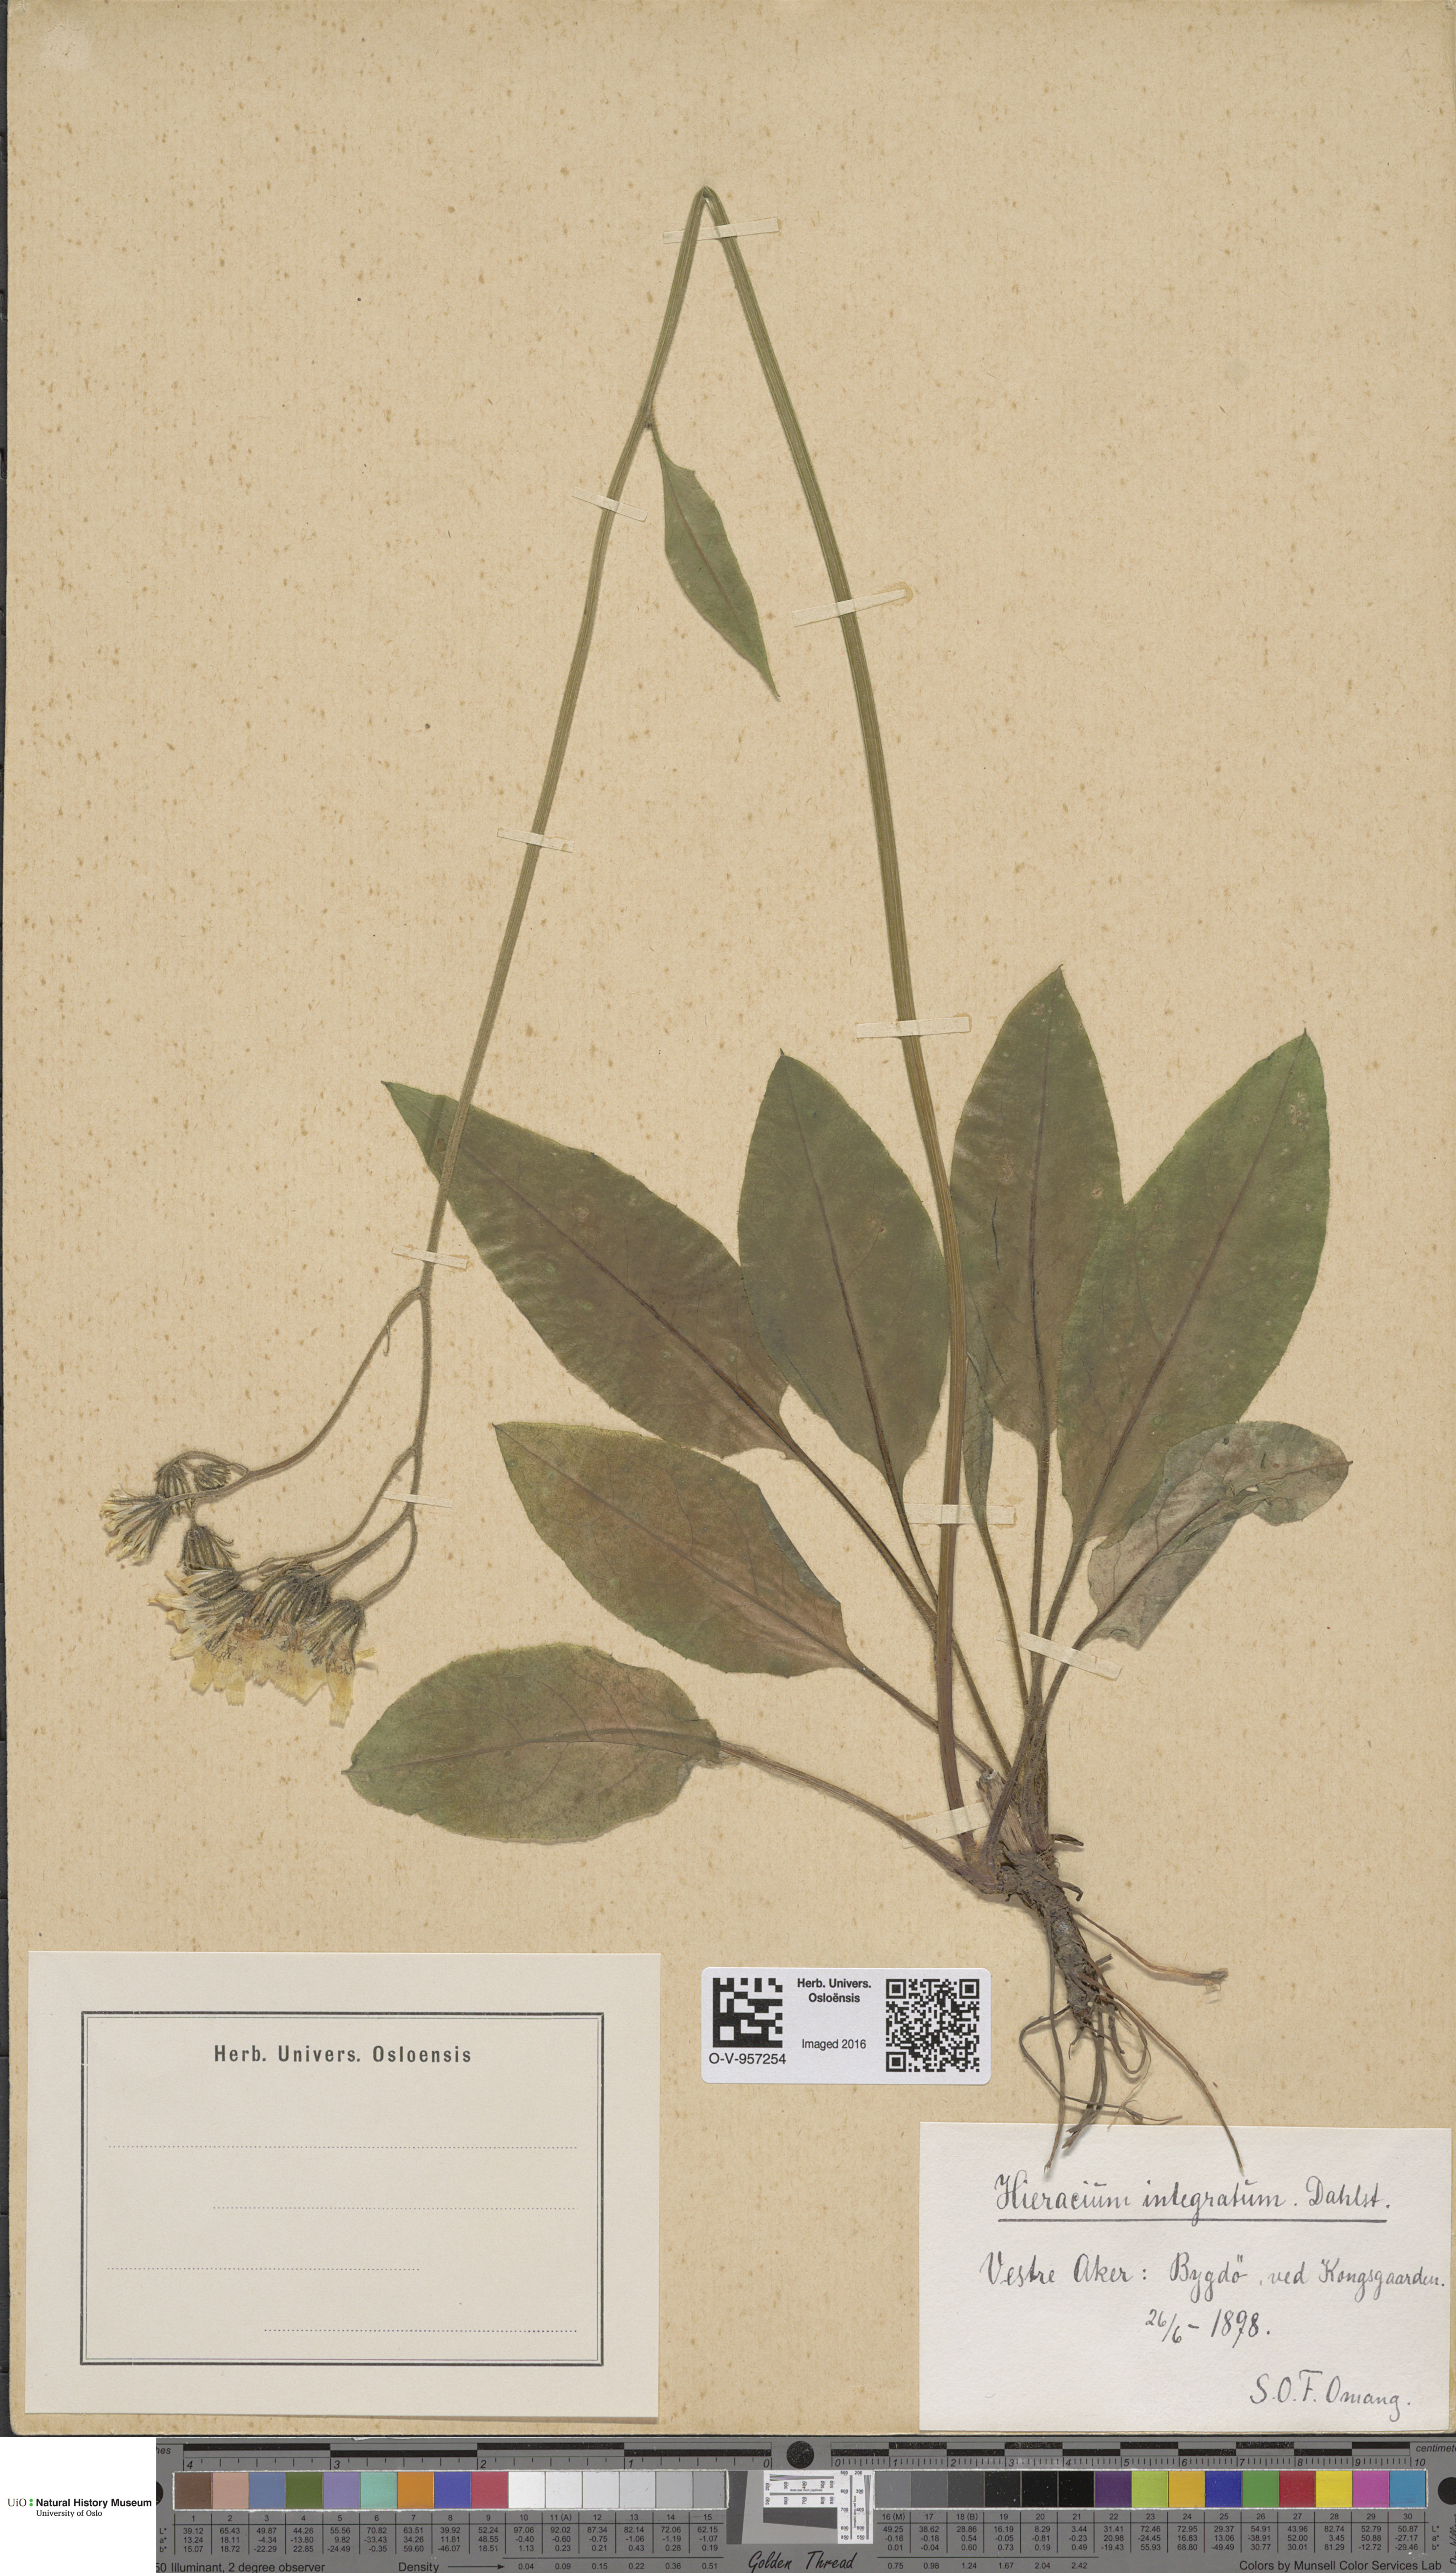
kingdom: Plantae
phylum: Tracheophyta
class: Magnoliopsida
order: Asterales
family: Asteraceae
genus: Hieracium
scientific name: Hieracium murorum
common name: Wall hawkweed
